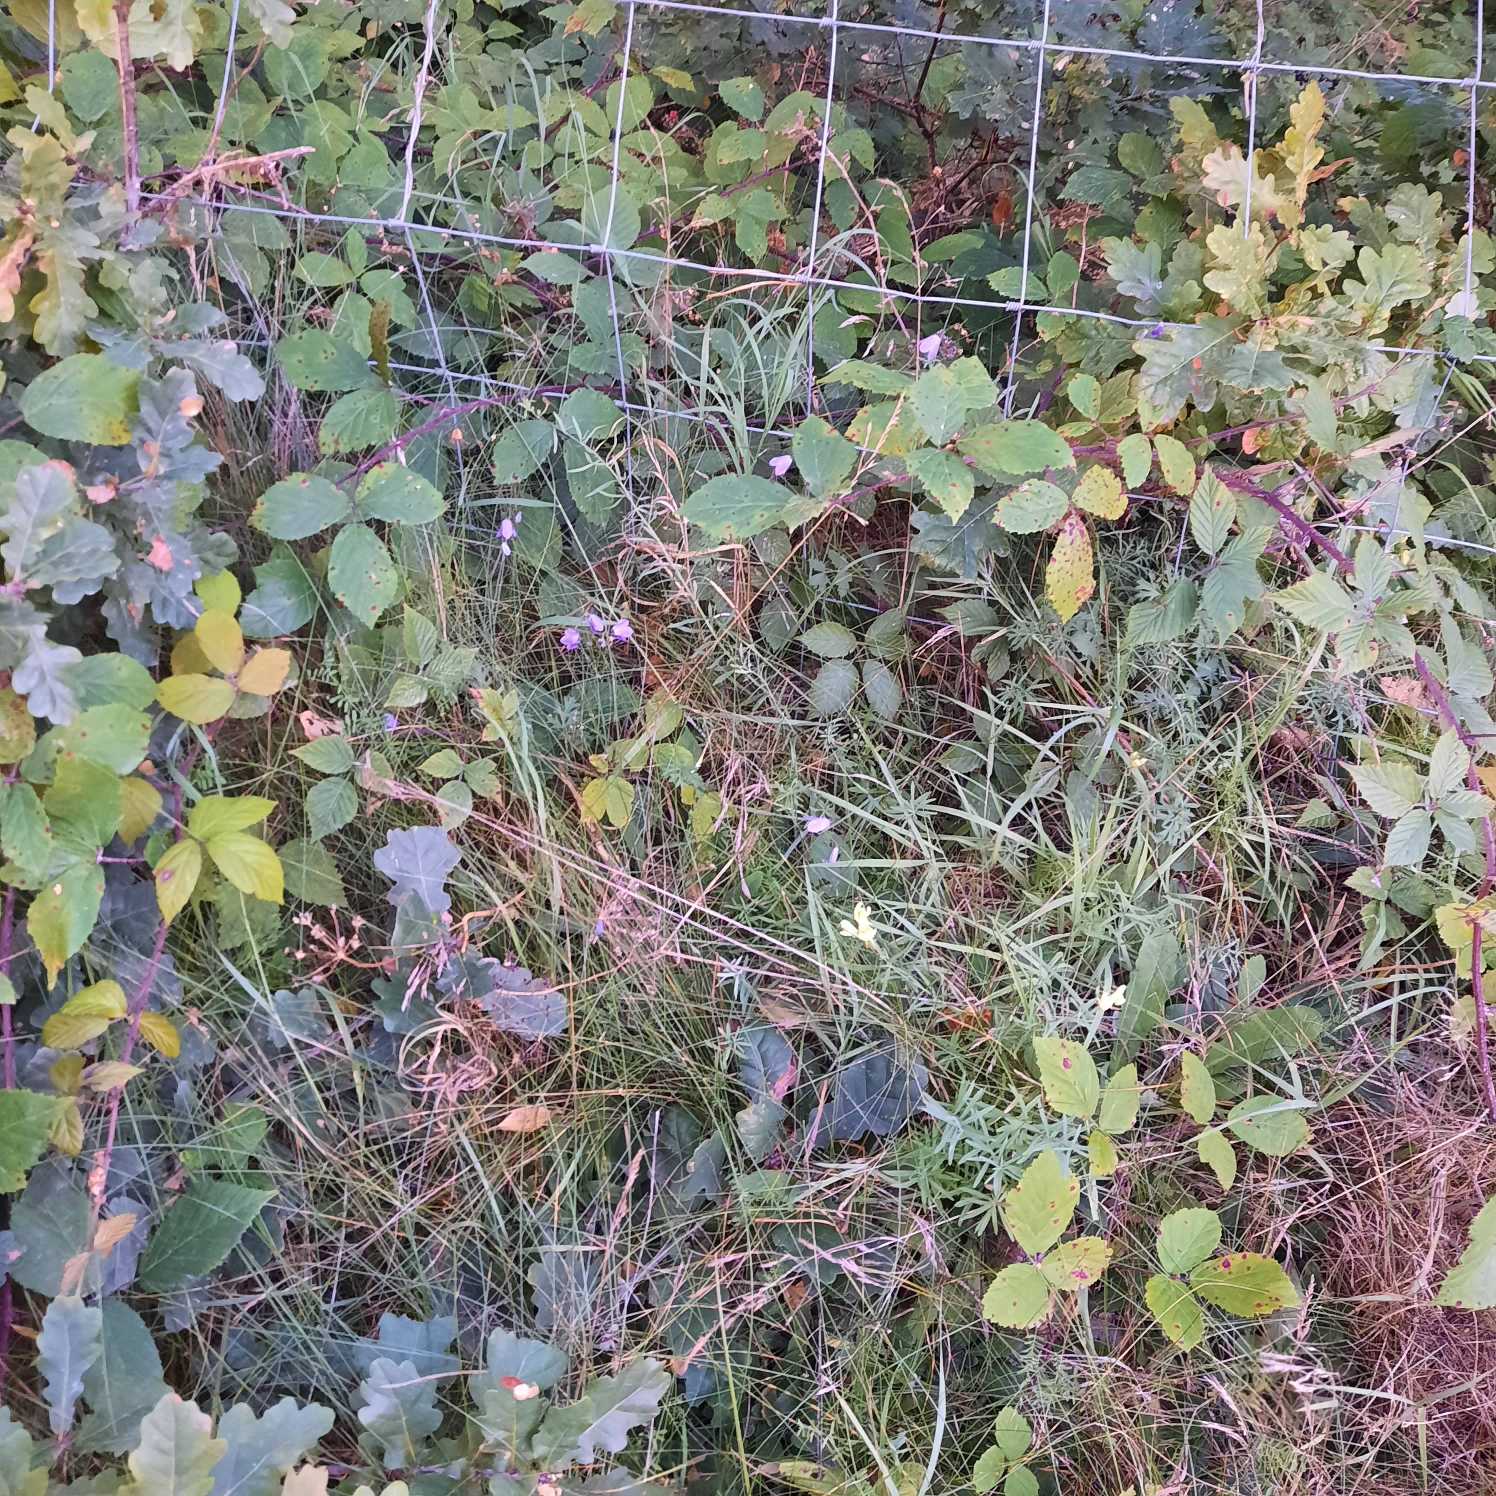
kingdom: Plantae
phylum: Tracheophyta
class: Magnoliopsida
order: Lamiales
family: Plantaginaceae
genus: Linaria
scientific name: Linaria vulgaris
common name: Almindelig torskemund
